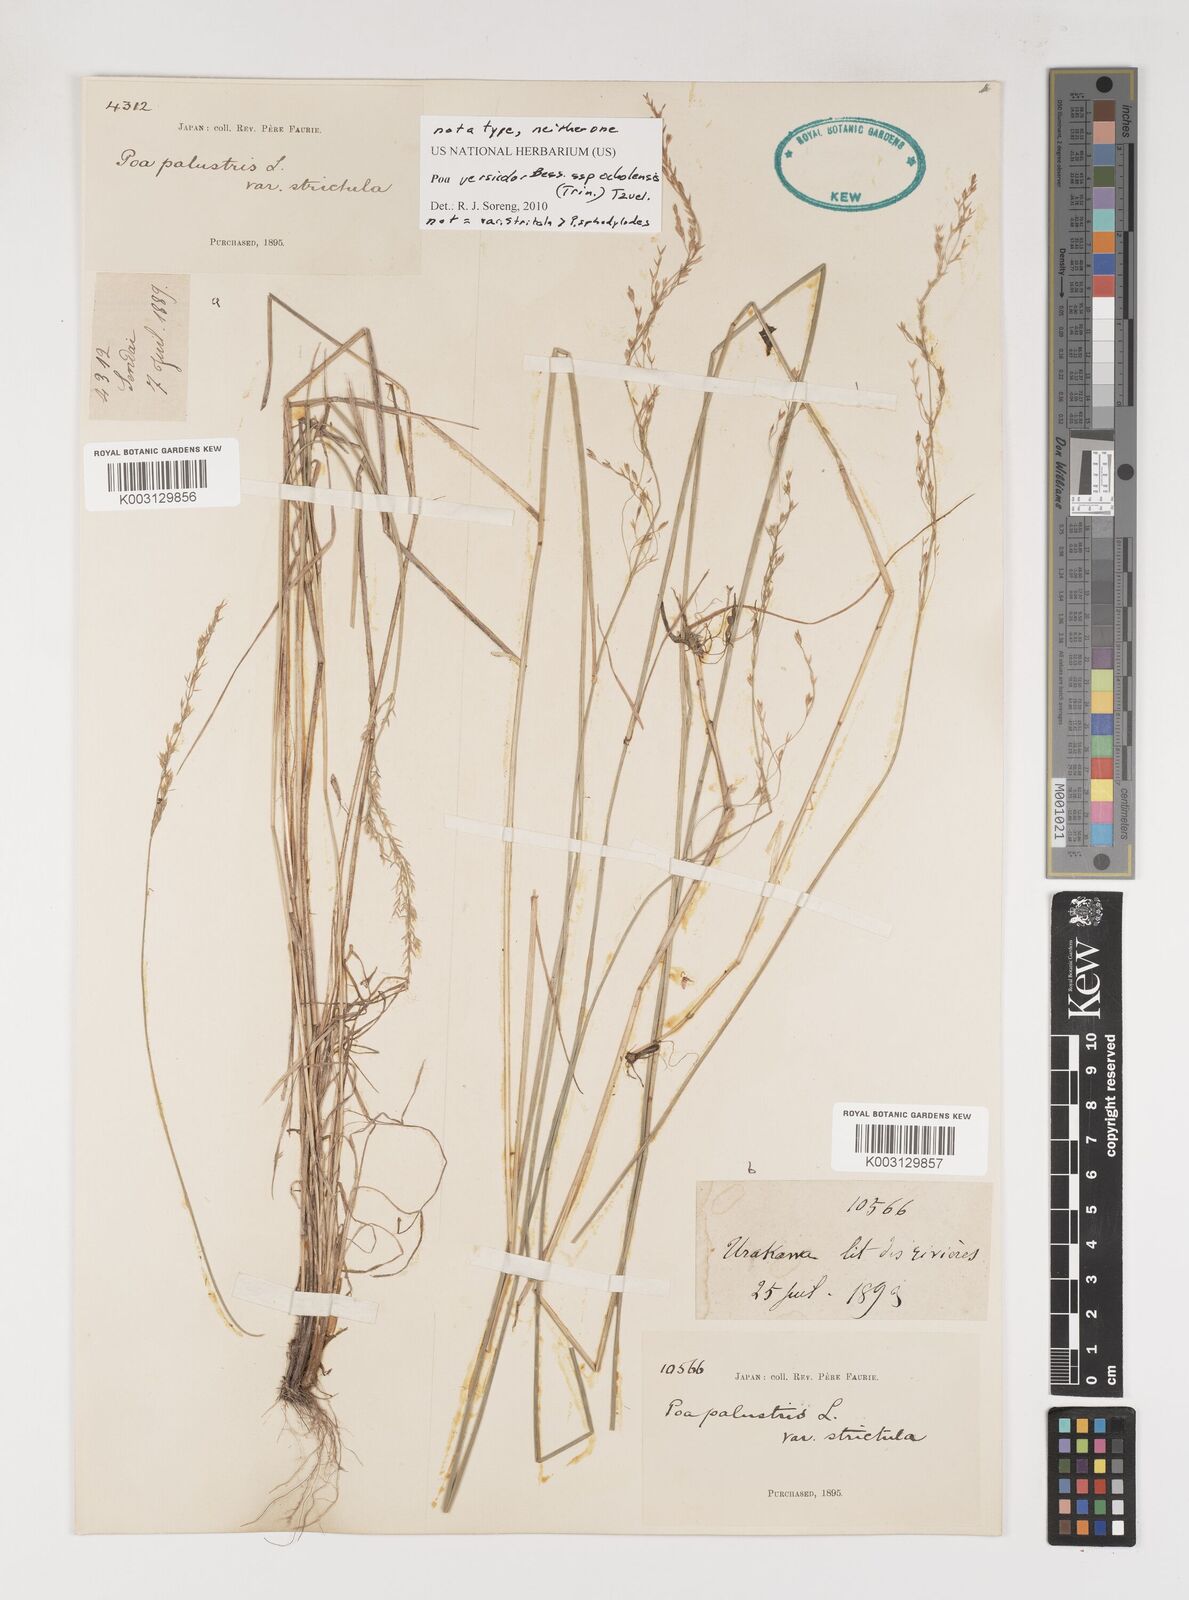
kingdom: Plantae
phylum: Tracheophyta
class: Liliopsida
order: Poales
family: Poaceae
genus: Poa
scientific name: Poa sphondylodes
